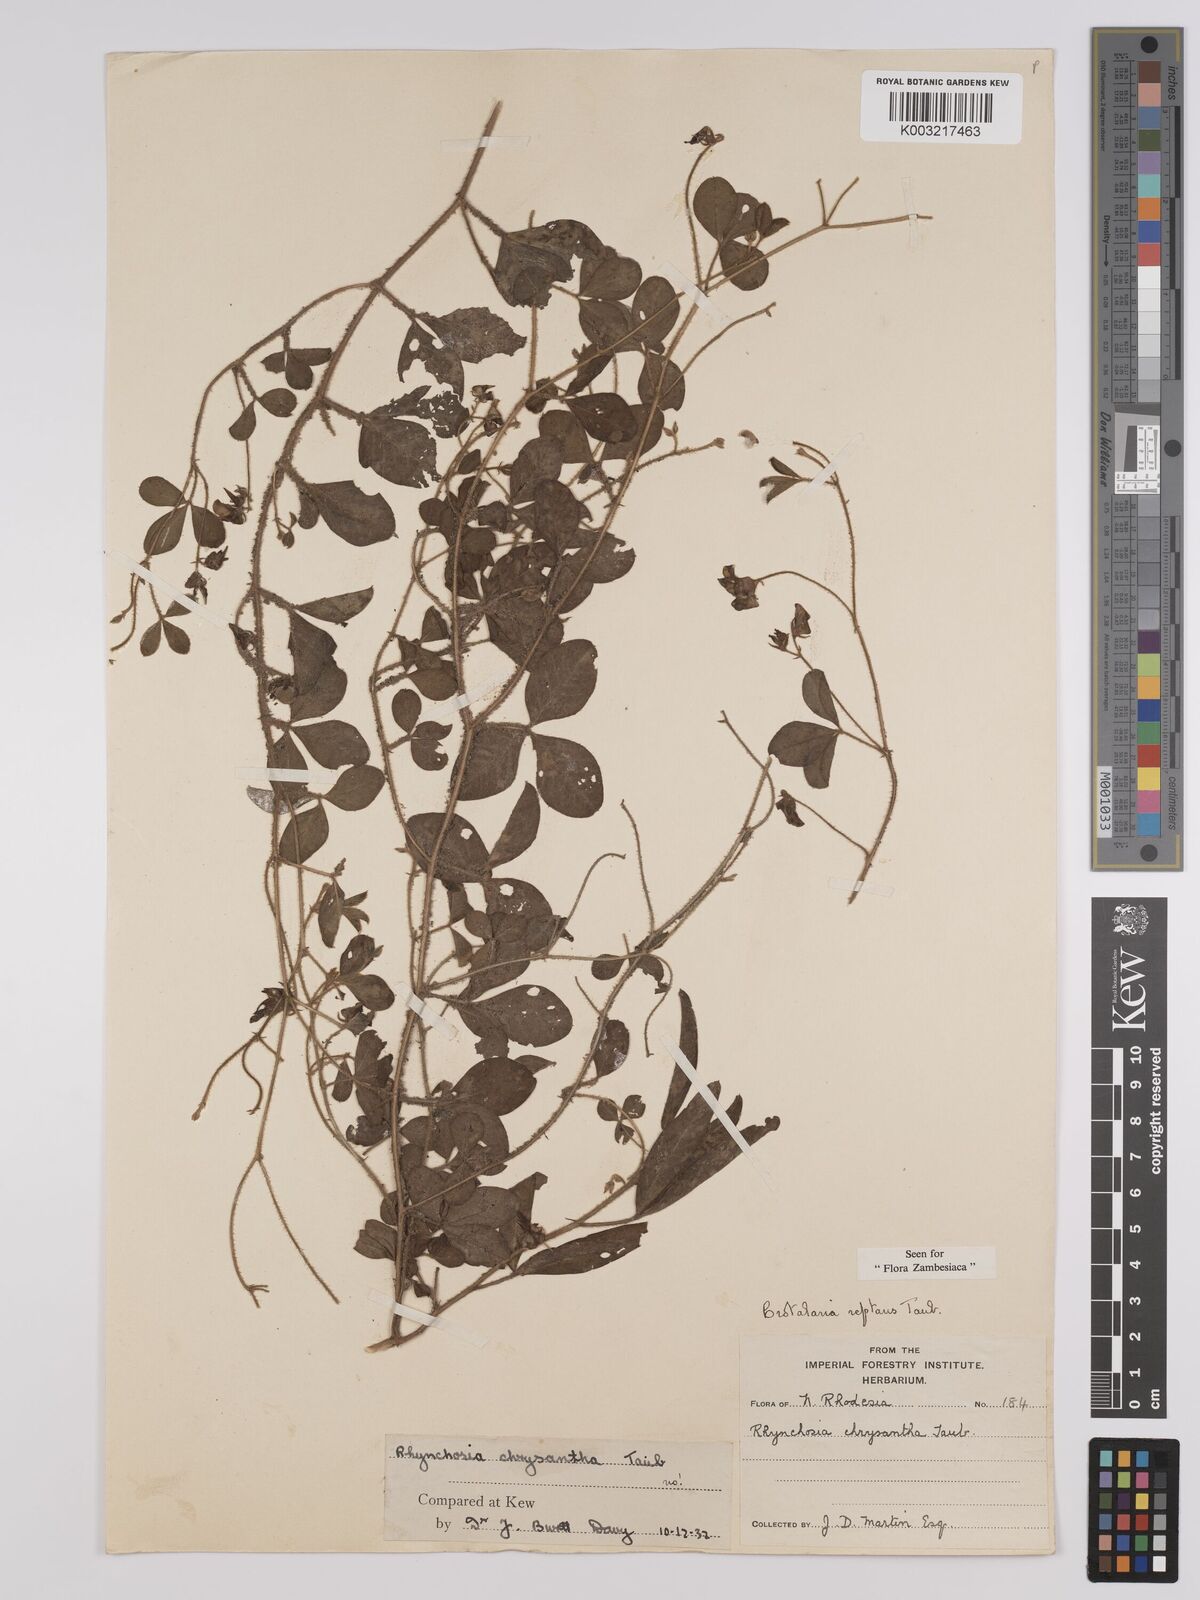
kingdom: Plantae
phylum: Tracheophyta
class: Magnoliopsida
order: Fabales
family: Fabaceae
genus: Crotalaria
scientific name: Crotalaria reptans
